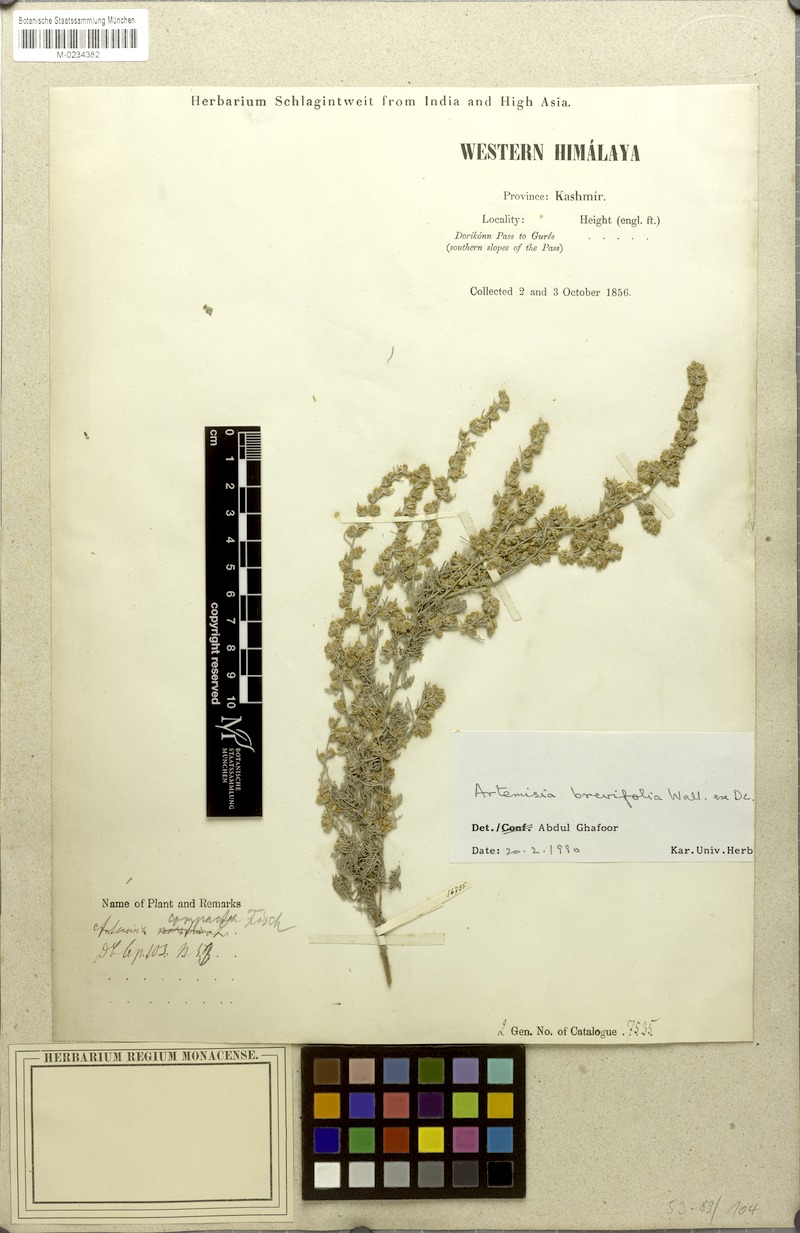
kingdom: Plantae
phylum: Tracheophyta
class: Magnoliopsida
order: Asterales
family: Asteraceae
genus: Artemisia
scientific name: Artemisia brevifolia
